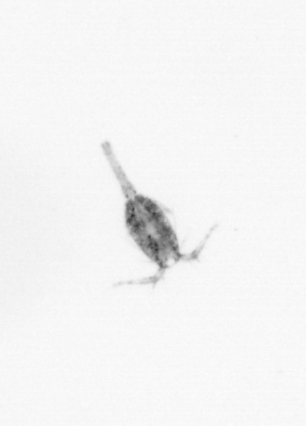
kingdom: Animalia
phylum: Arthropoda
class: Copepoda
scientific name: Copepoda
